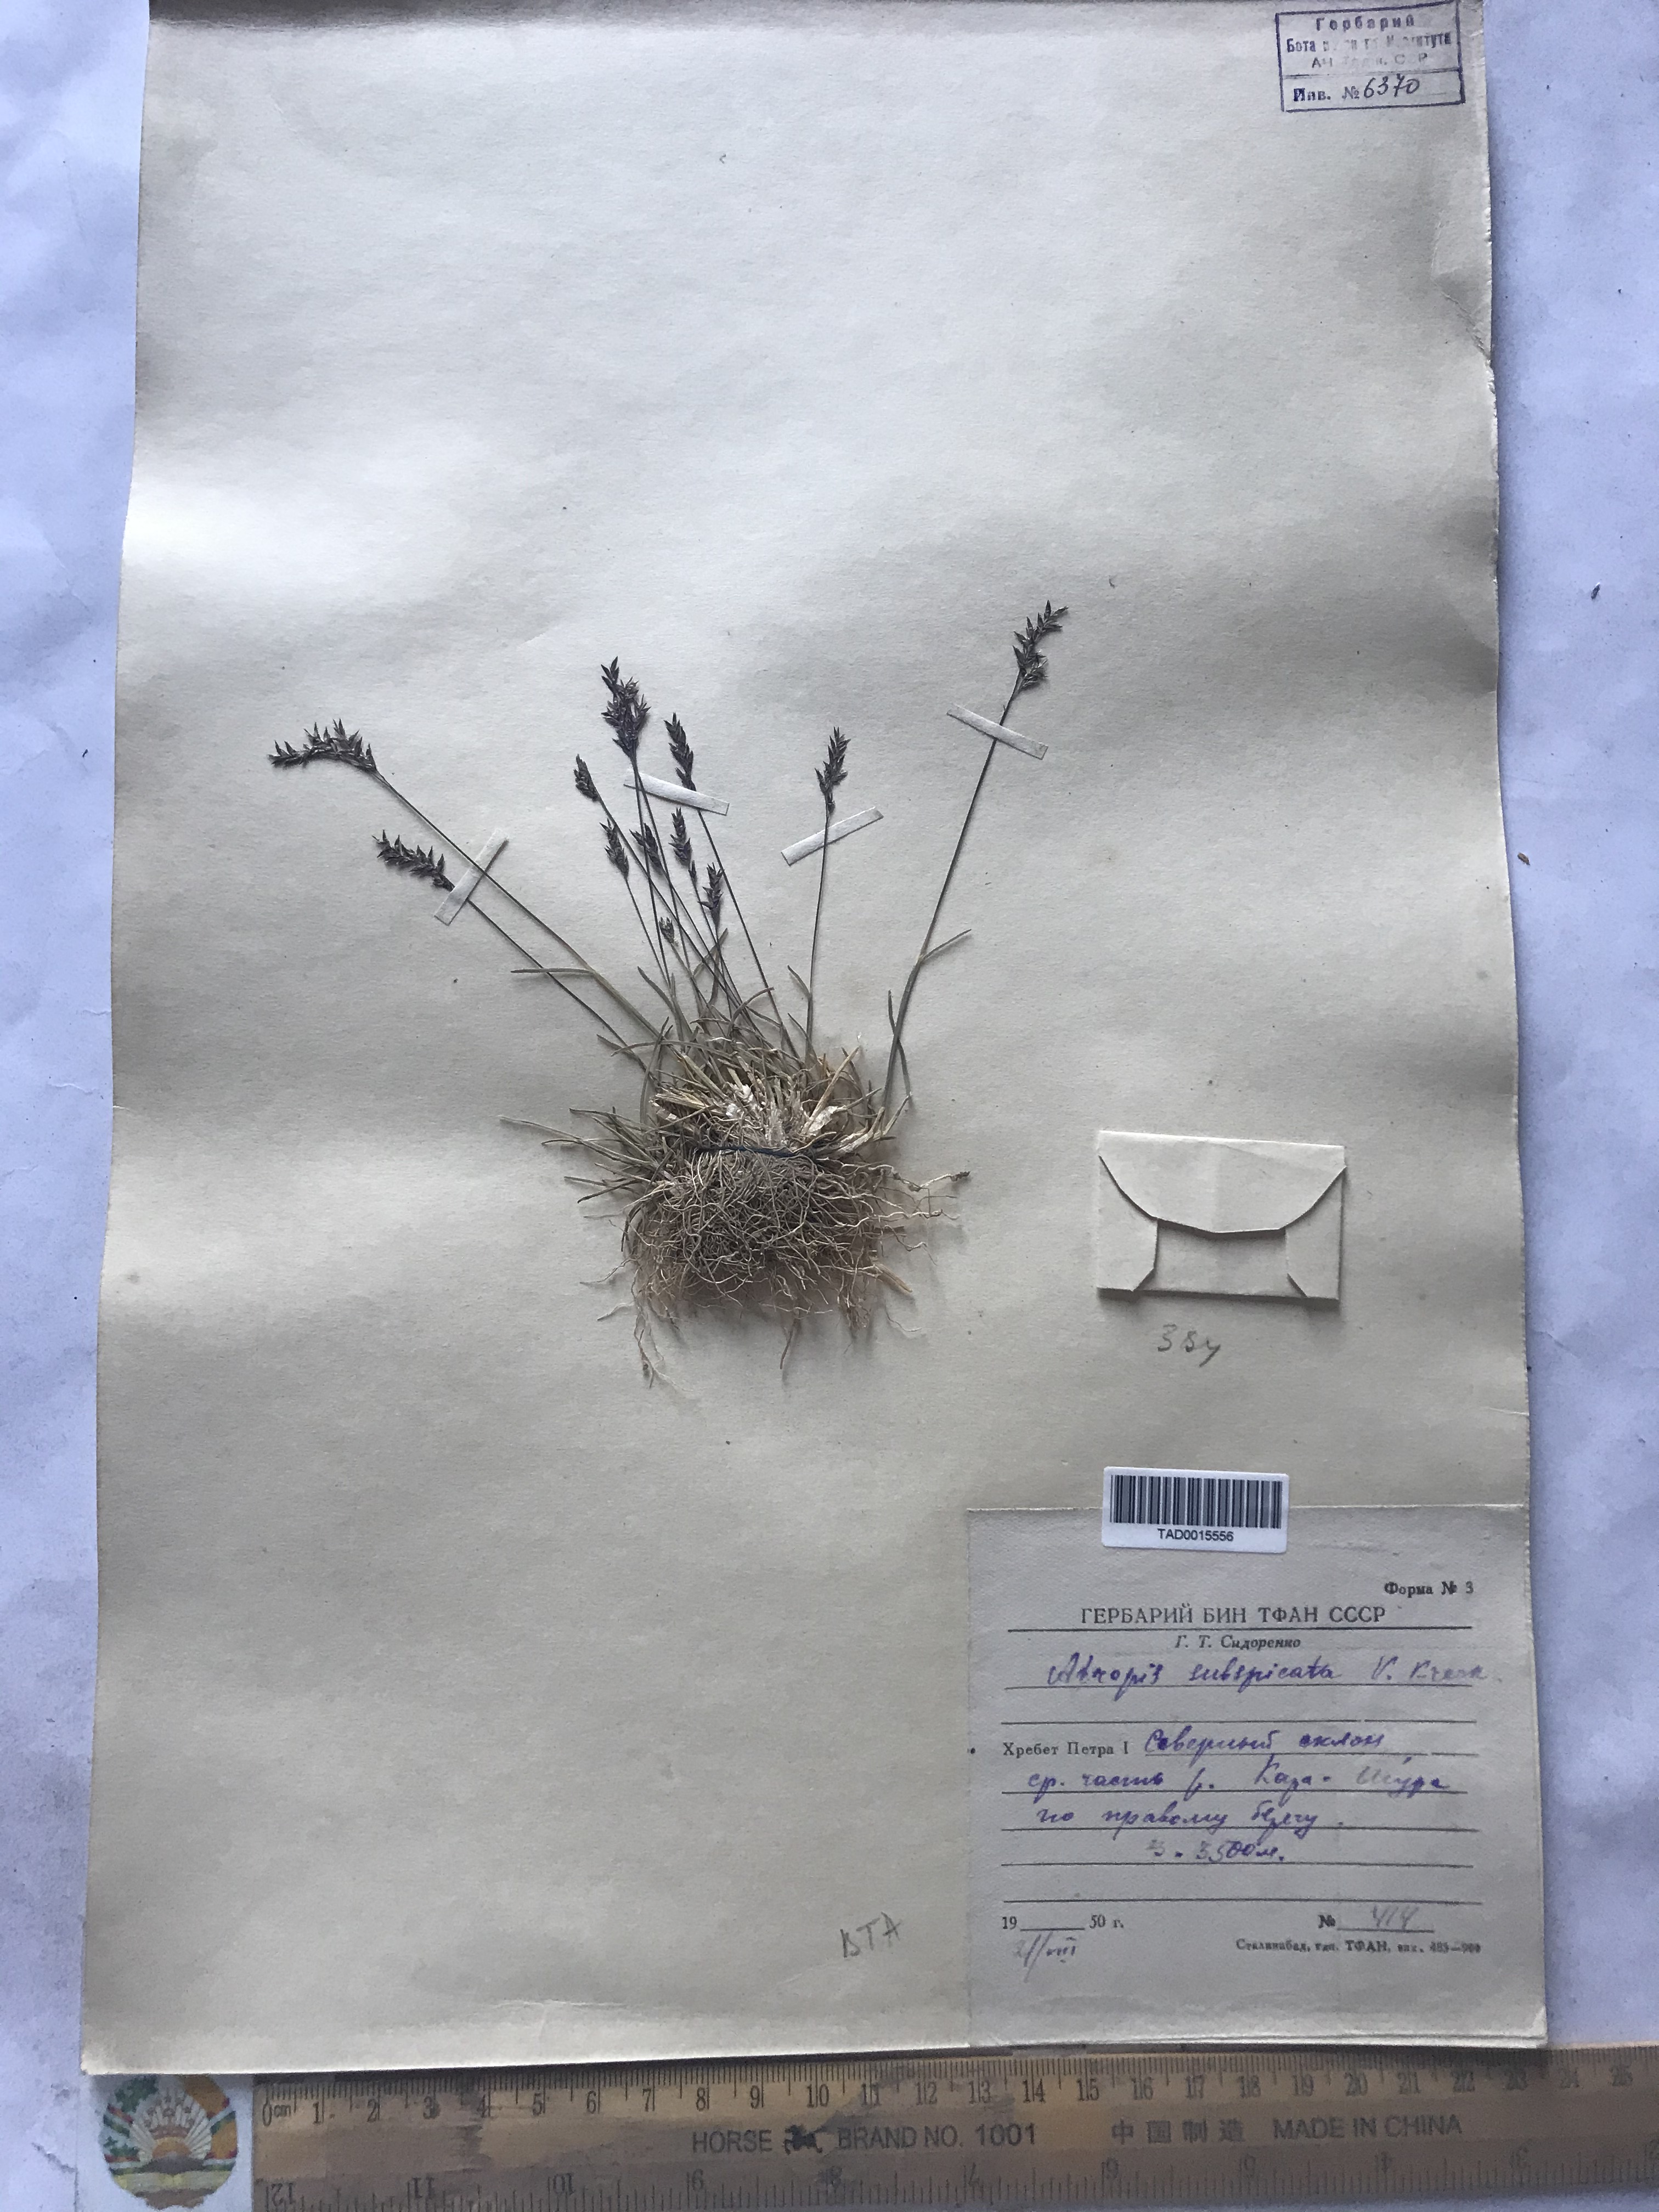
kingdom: Plantae
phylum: Tracheophyta
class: Liliopsida
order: Poales
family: Poaceae
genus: Puccinellia
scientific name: Puccinellia subspicata
